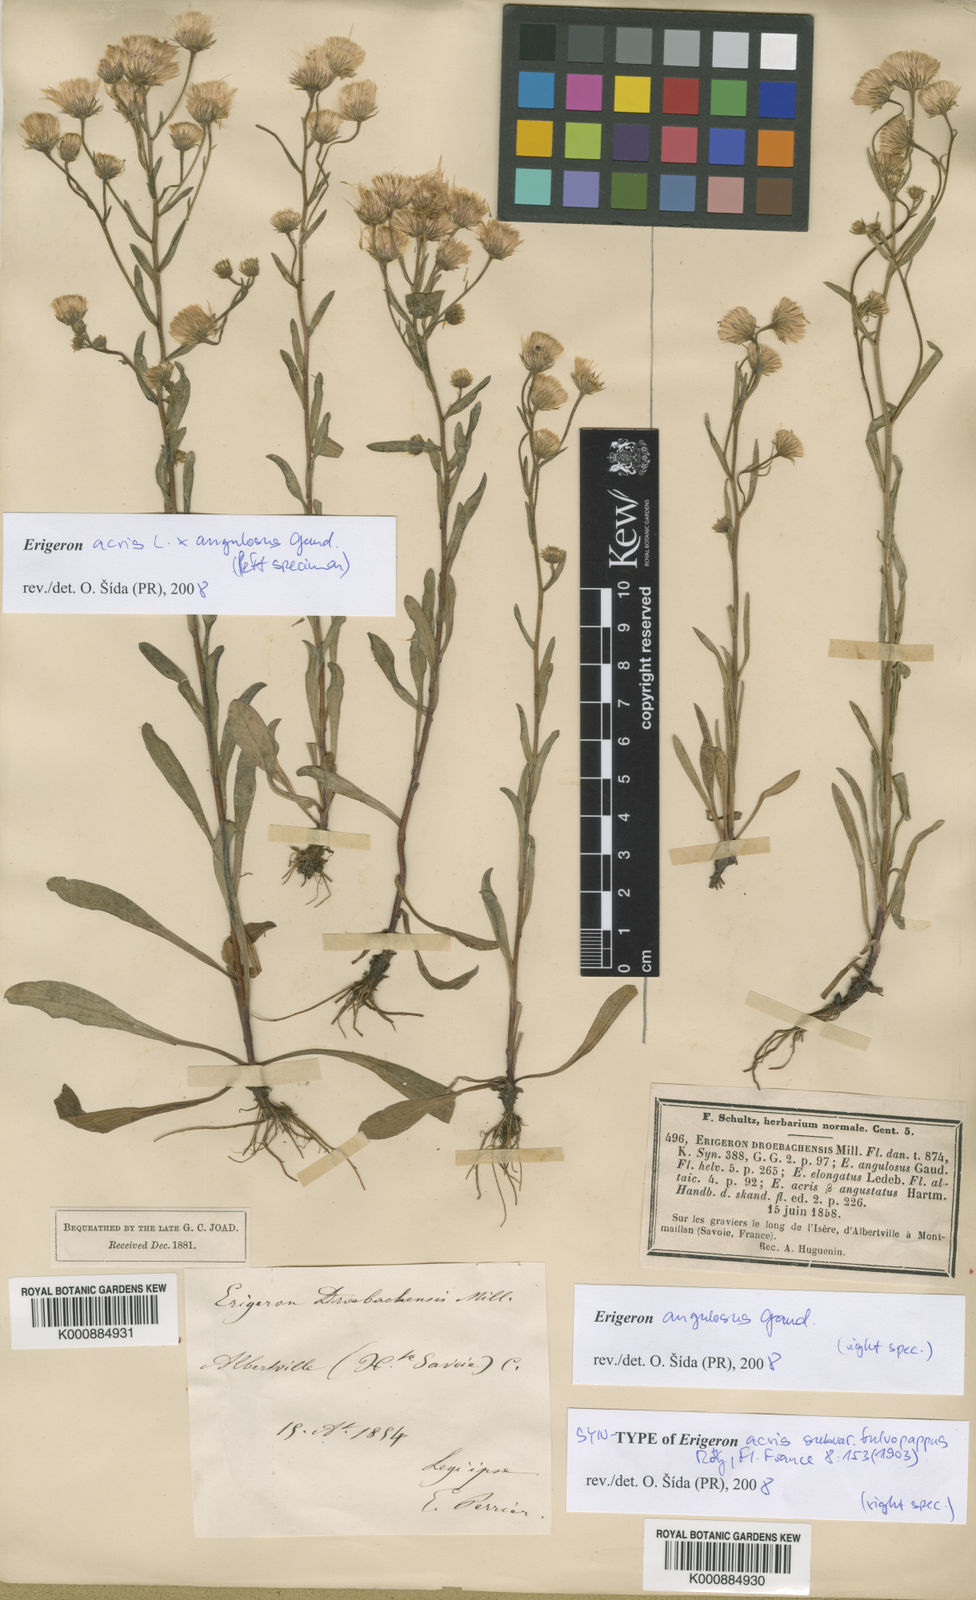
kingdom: Plantae
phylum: Tracheophyta
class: Magnoliopsida
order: Asterales
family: Asteraceae
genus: Erigeron
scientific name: Erigeron
